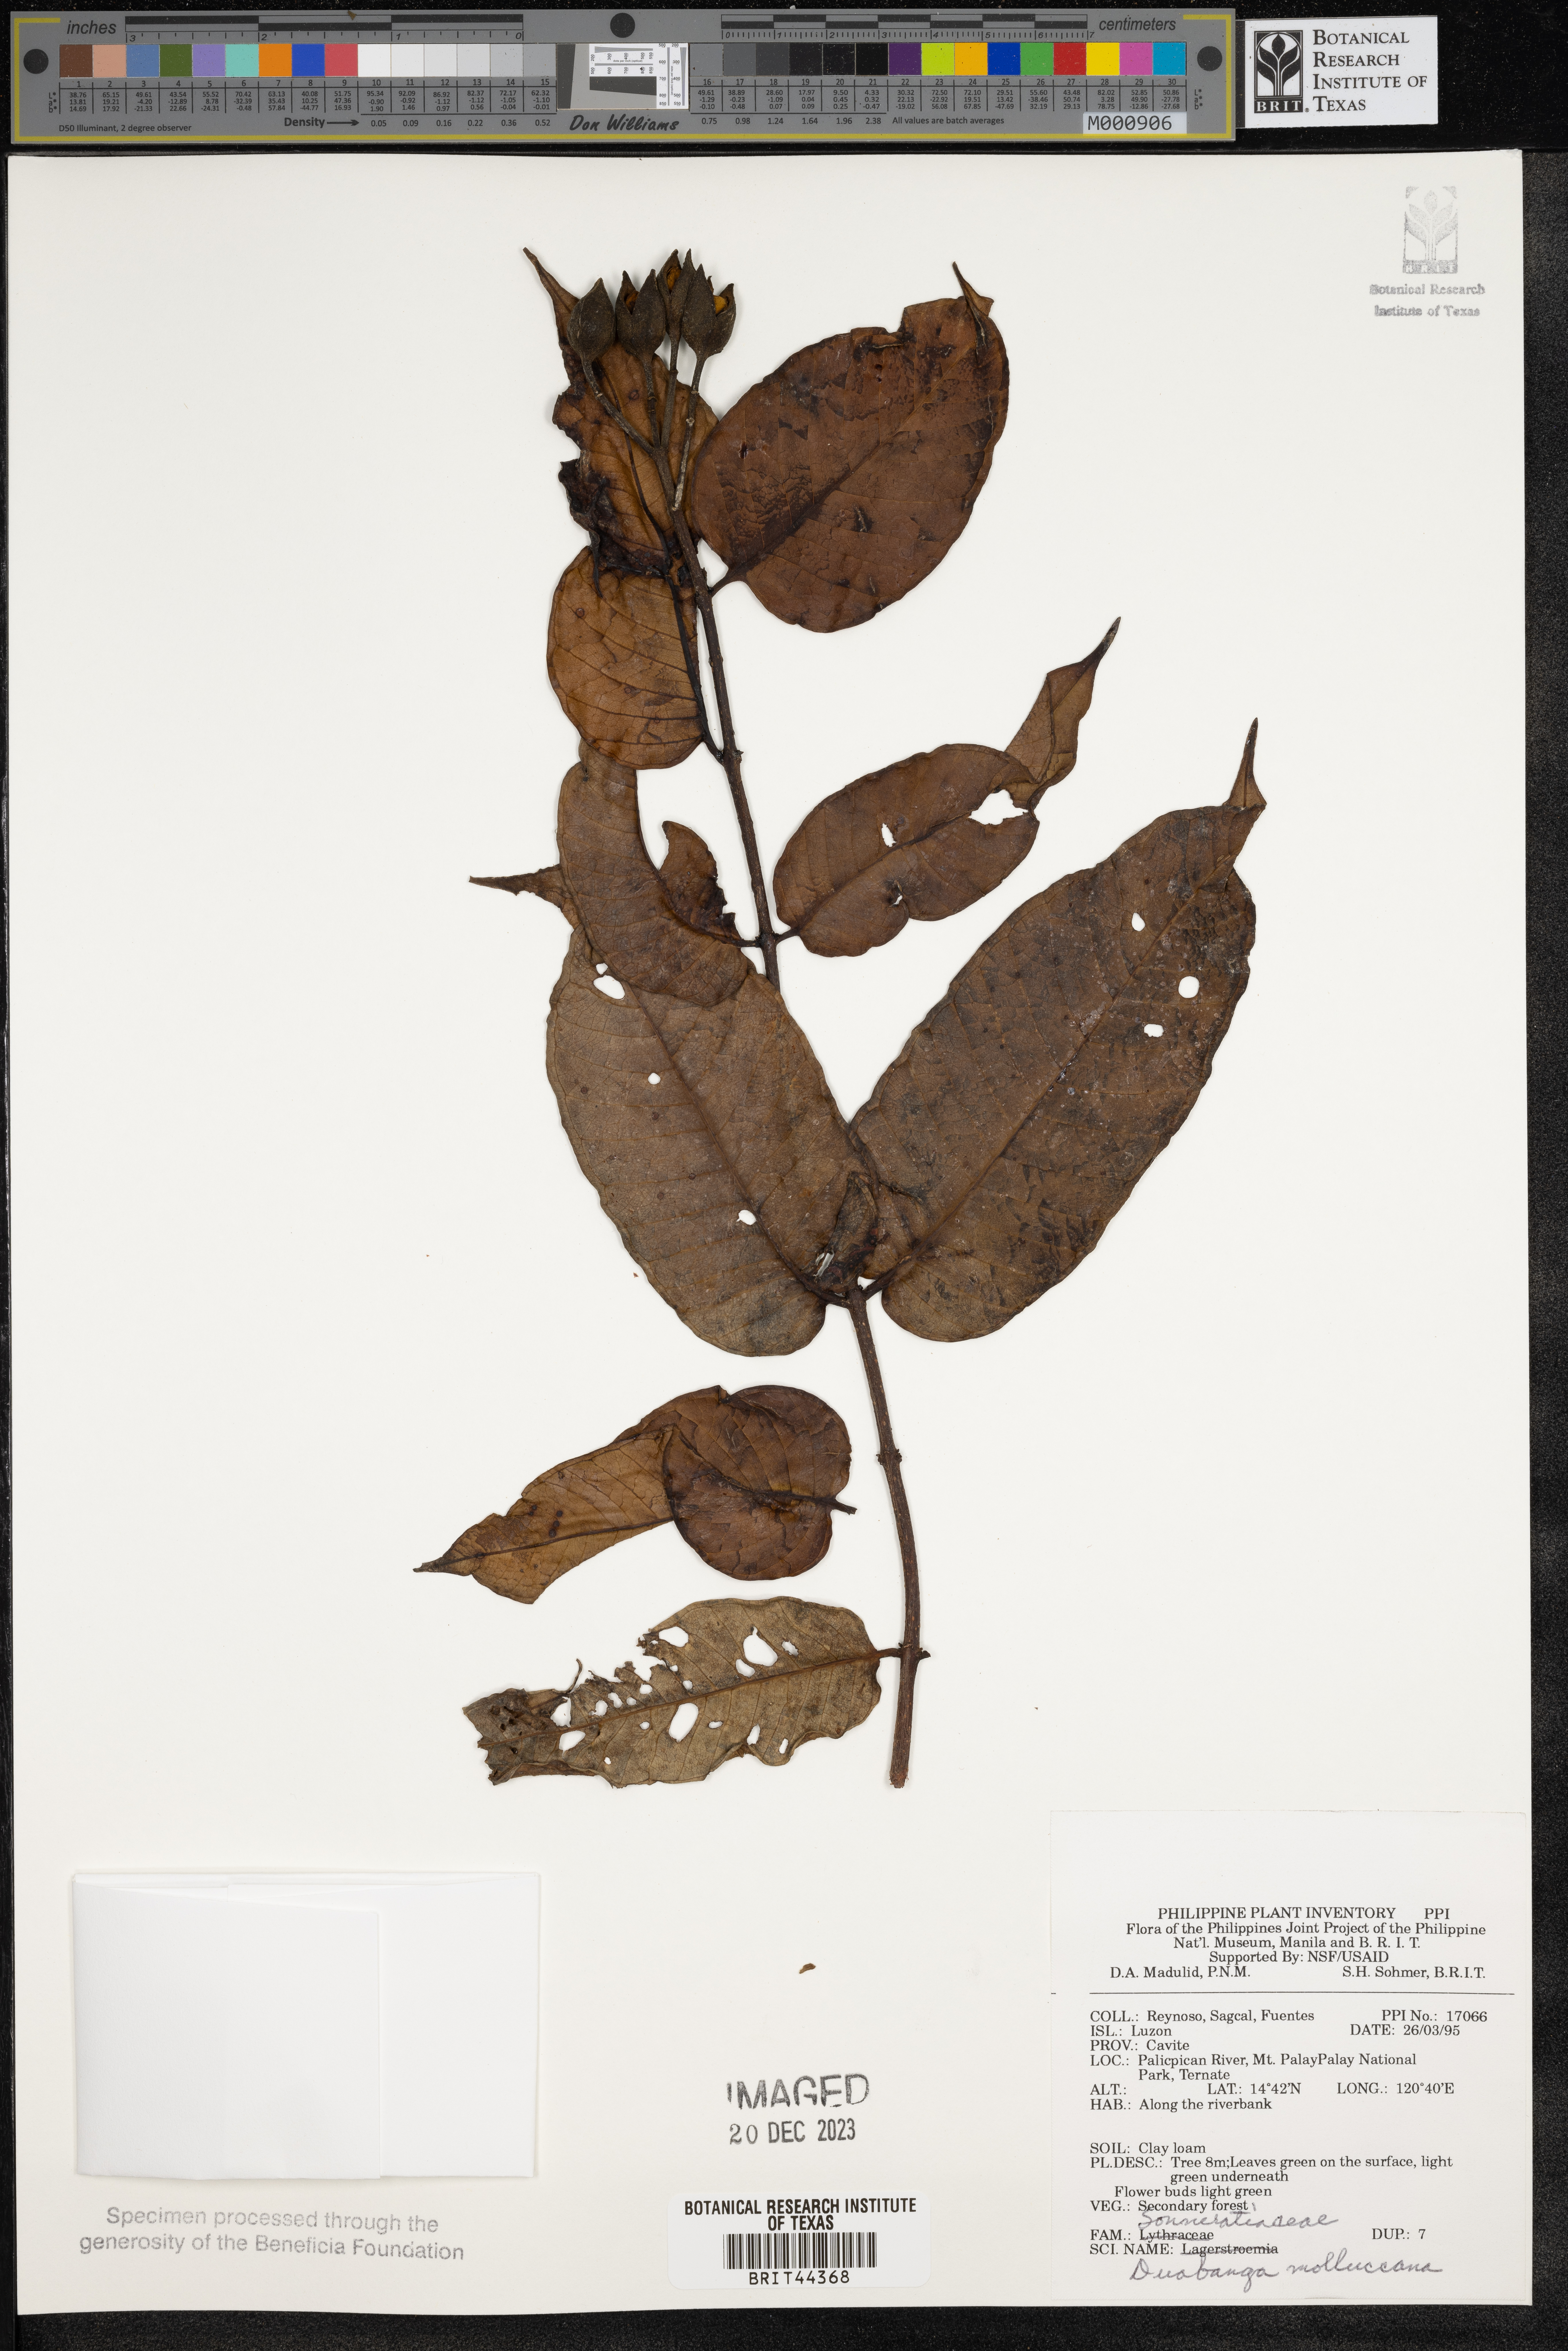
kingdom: Plantae
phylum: Tracheophyta
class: Magnoliopsida
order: Myrtales
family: Lythraceae
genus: Duabanga
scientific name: Duabanga moluccana
